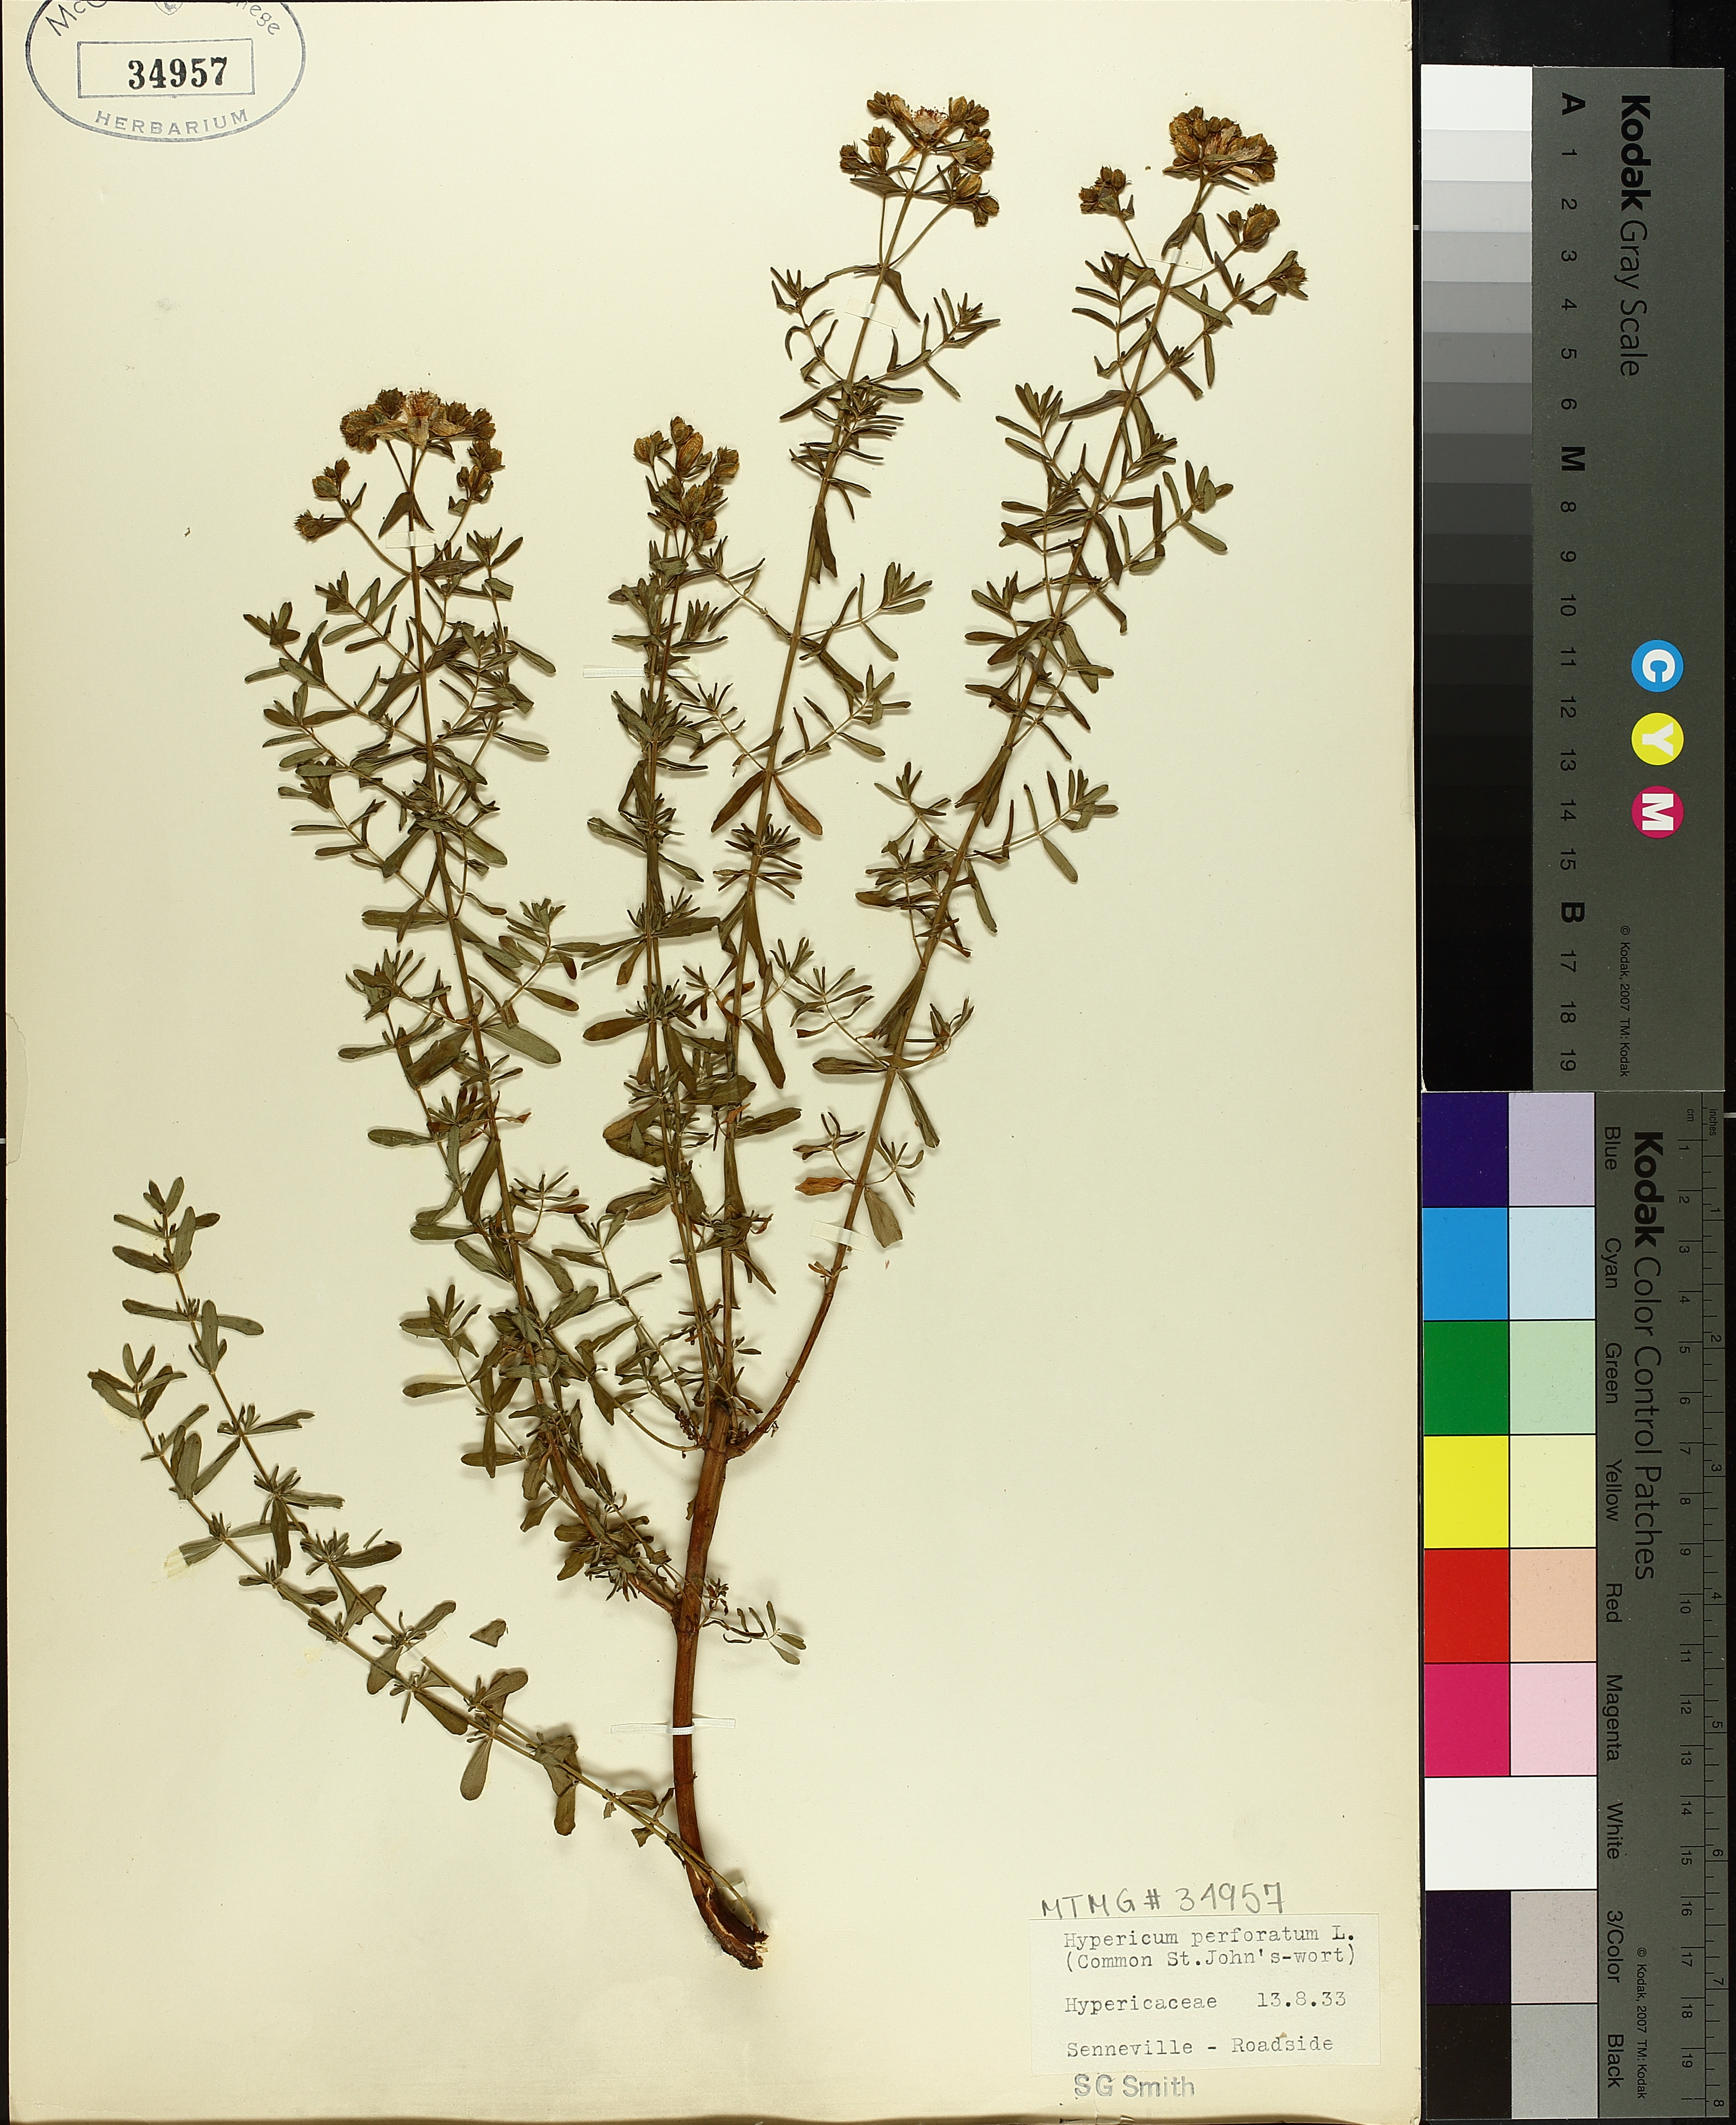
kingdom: Plantae
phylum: Tracheophyta
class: Magnoliopsida
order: Malpighiales
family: Hypericaceae
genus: Hypericum
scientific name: Hypericum perforatum
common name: Common st. johnswort
